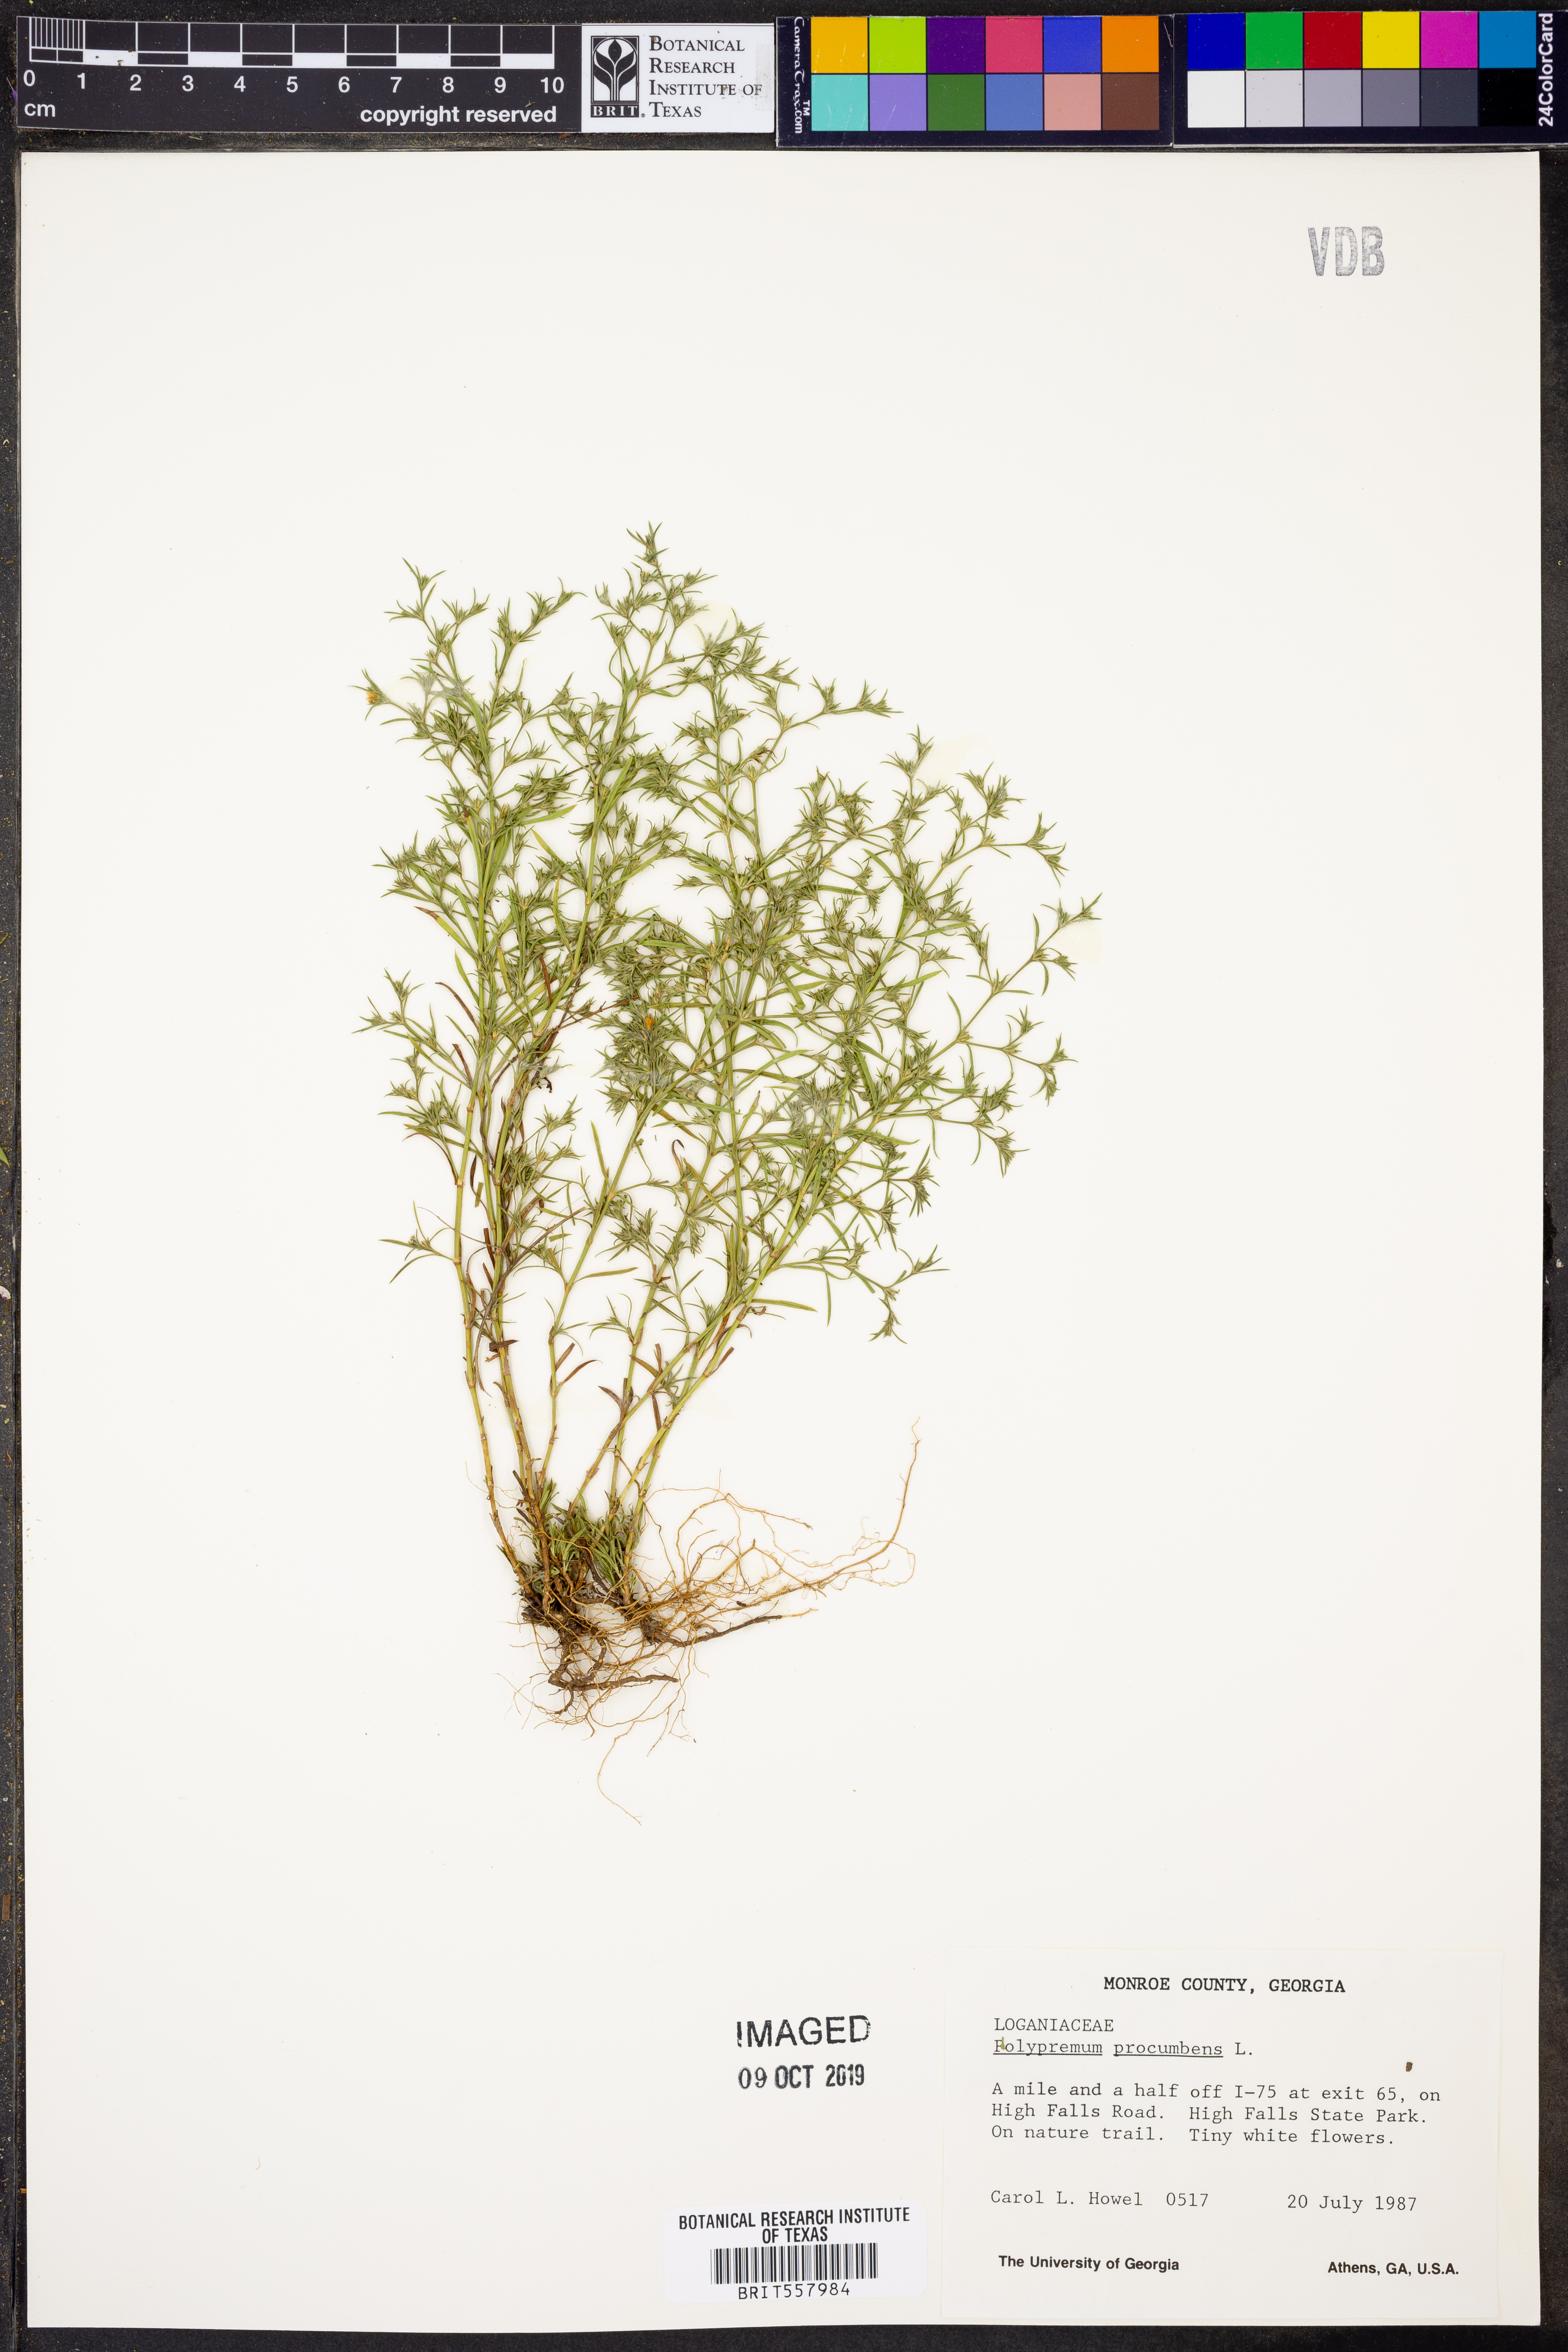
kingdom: Plantae
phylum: Tracheophyta
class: Magnoliopsida
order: Lamiales
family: Tetrachondraceae
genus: Polypremum
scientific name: Polypremum procumbens
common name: Juniper-leaf
